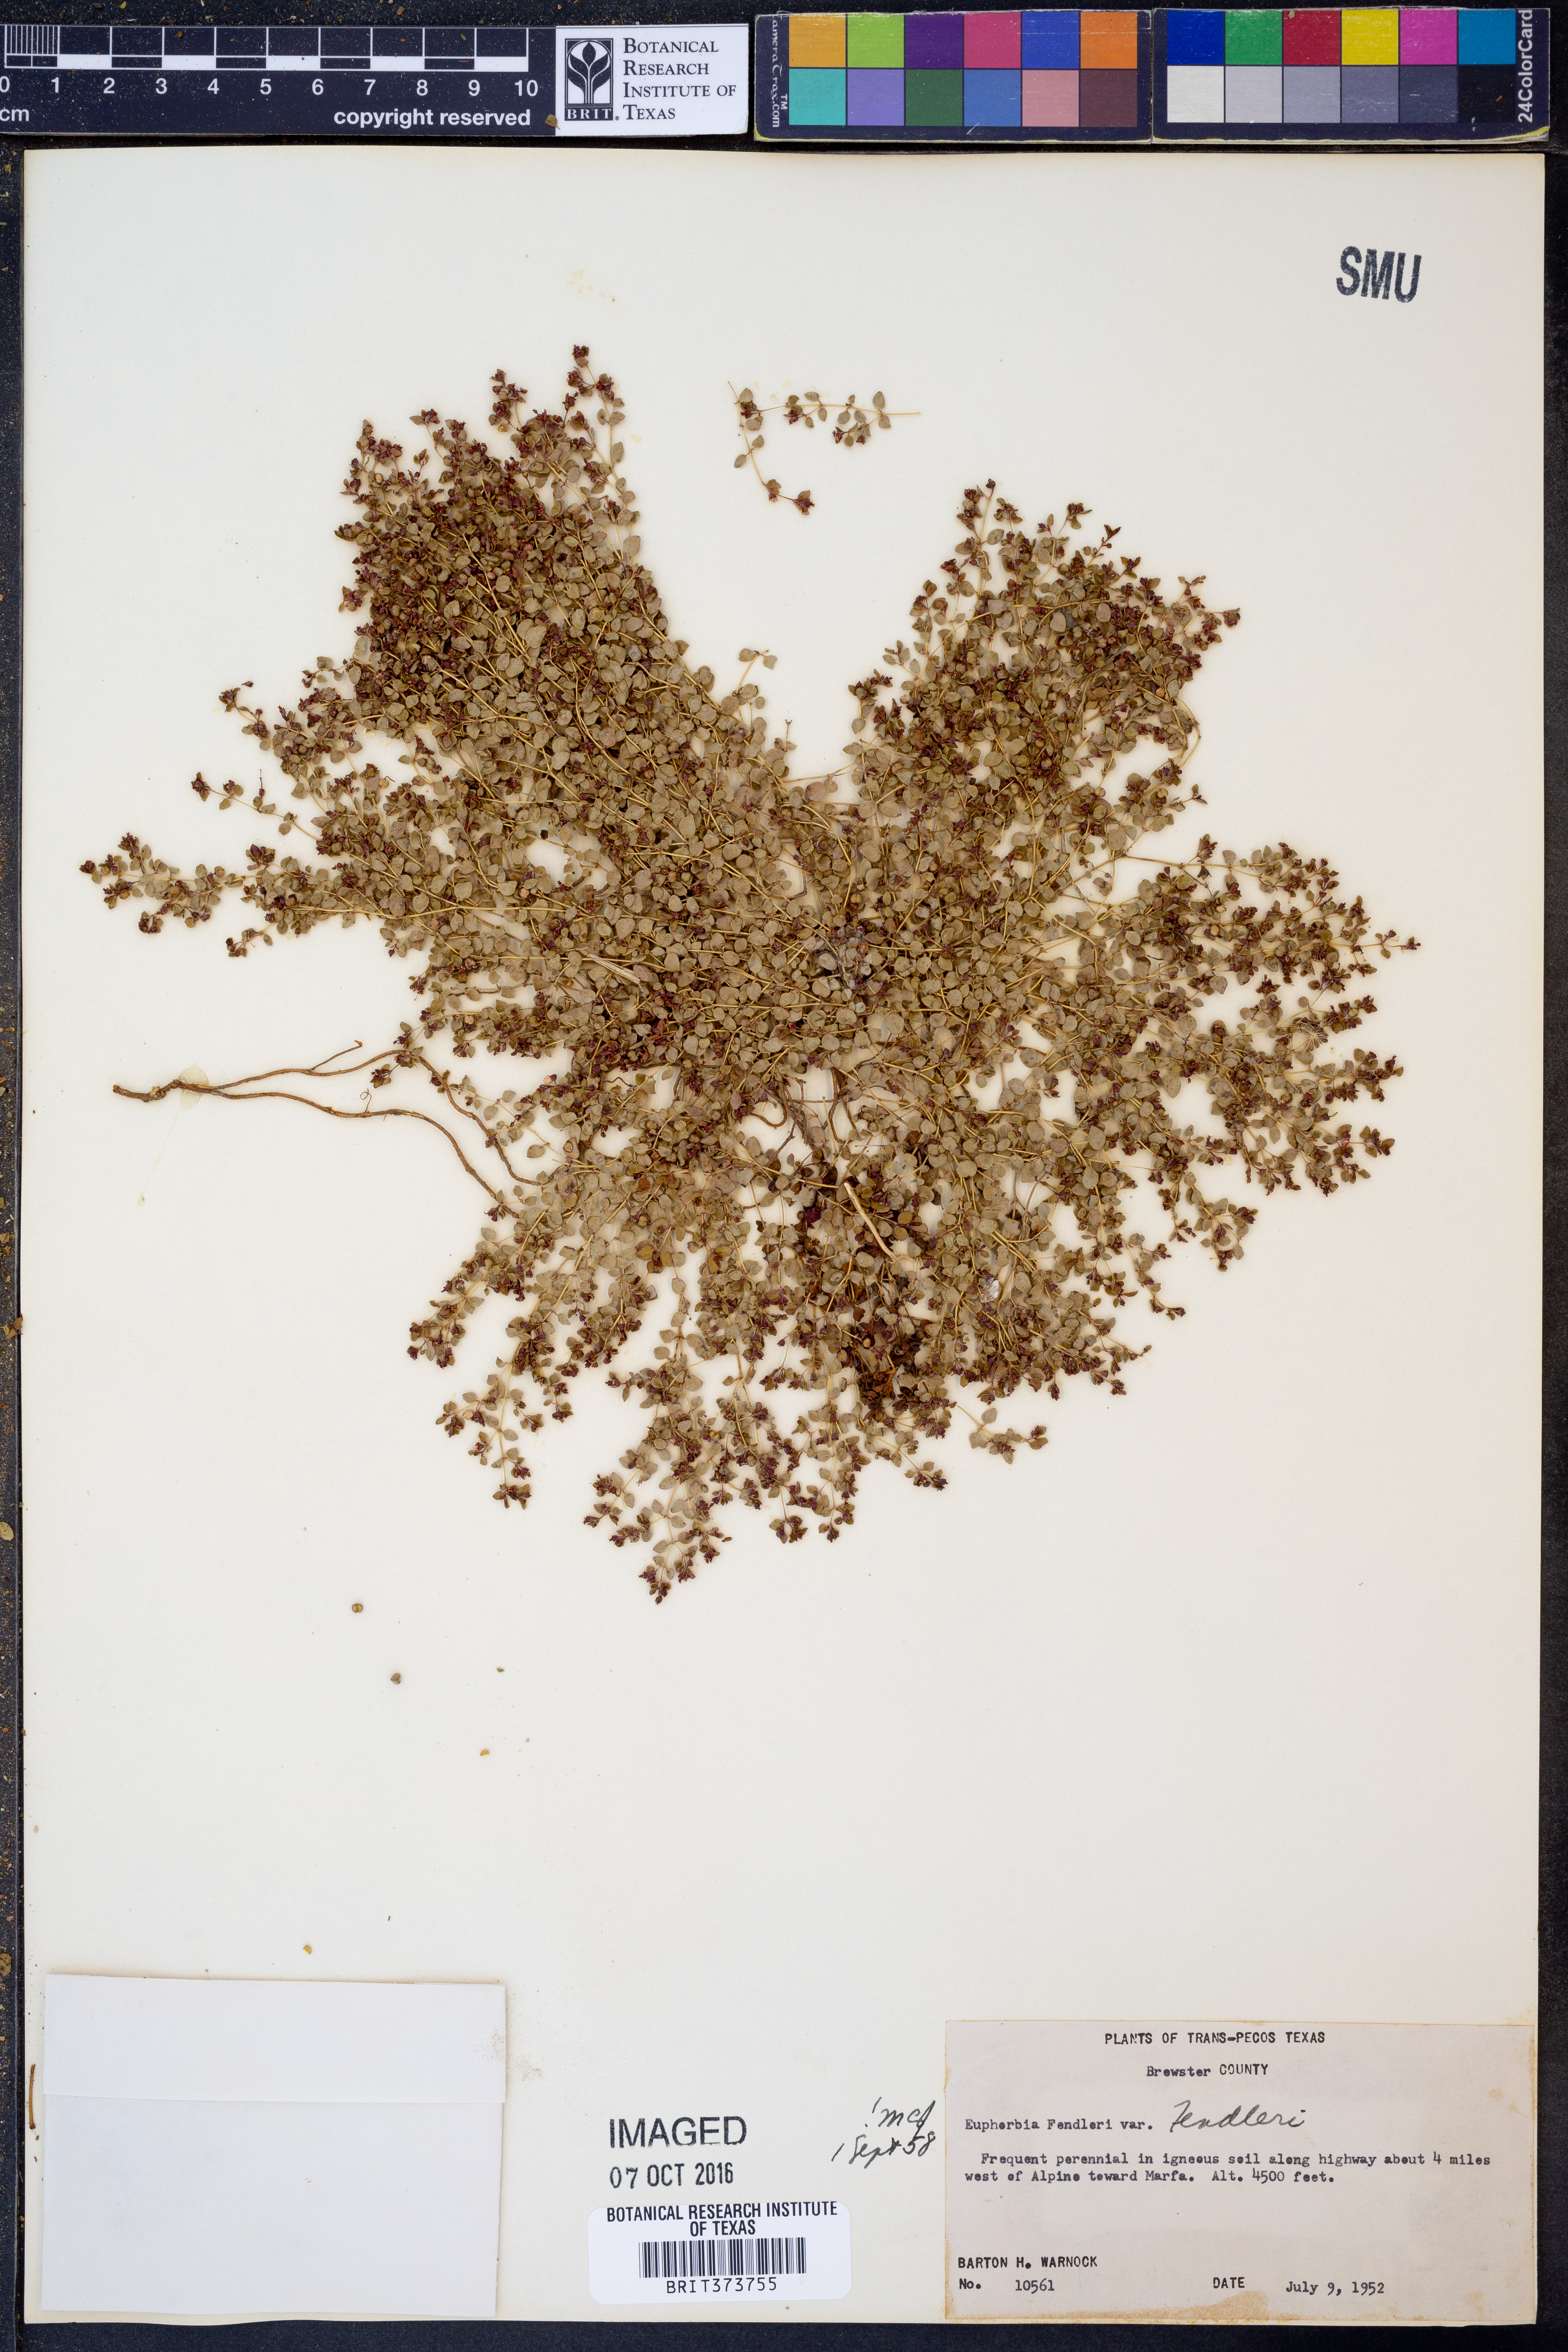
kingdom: Plantae
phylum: Tracheophyta
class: Magnoliopsida
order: Malpighiales
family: Euphorbiaceae
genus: Euphorbia
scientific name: Euphorbia fendleri
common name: Fendler's euphorbia
